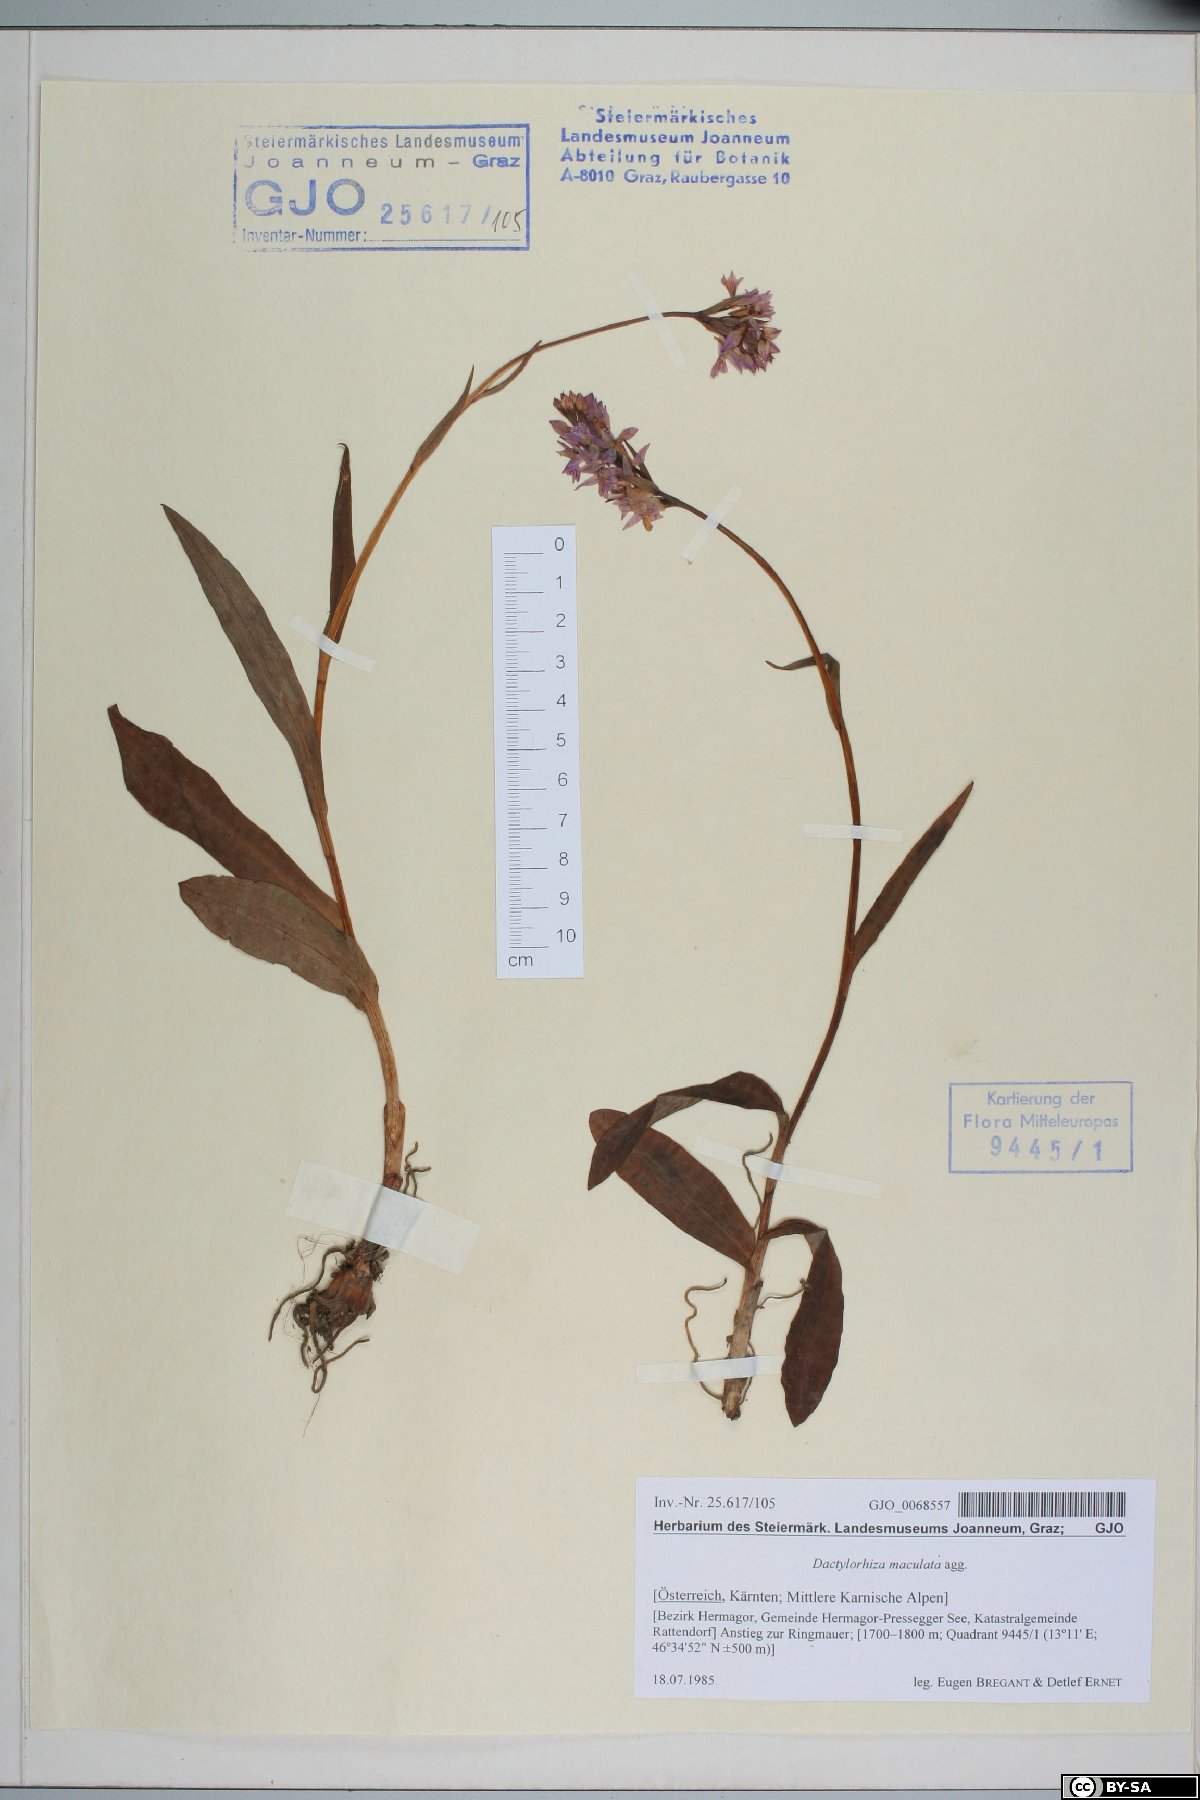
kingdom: Plantae
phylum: Tracheophyta
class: Liliopsida
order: Asparagales
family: Orchidaceae
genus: Dactylorhiza
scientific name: Dactylorhiza maculata
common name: Heath spotted-orchid
